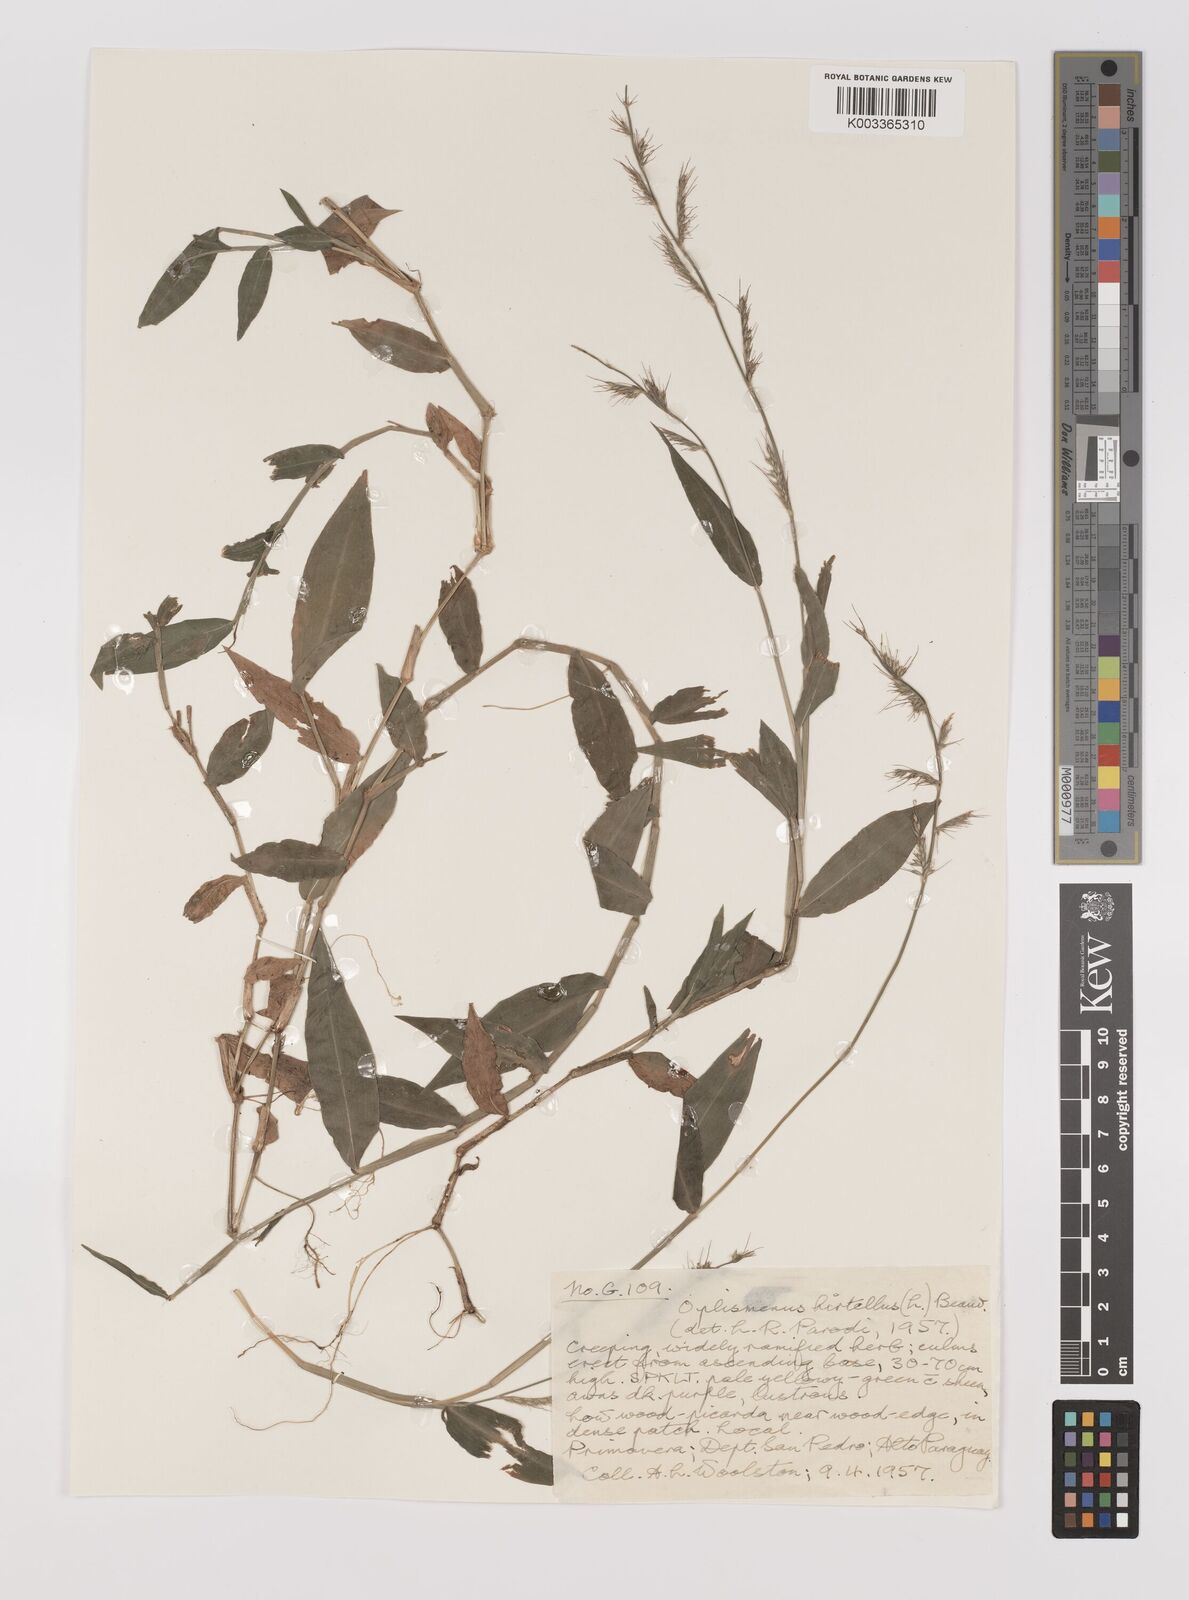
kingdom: Plantae
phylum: Tracheophyta
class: Liliopsida
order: Poales
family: Poaceae
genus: Oplismenus
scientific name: Oplismenus hirtellus
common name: Basketgrass
